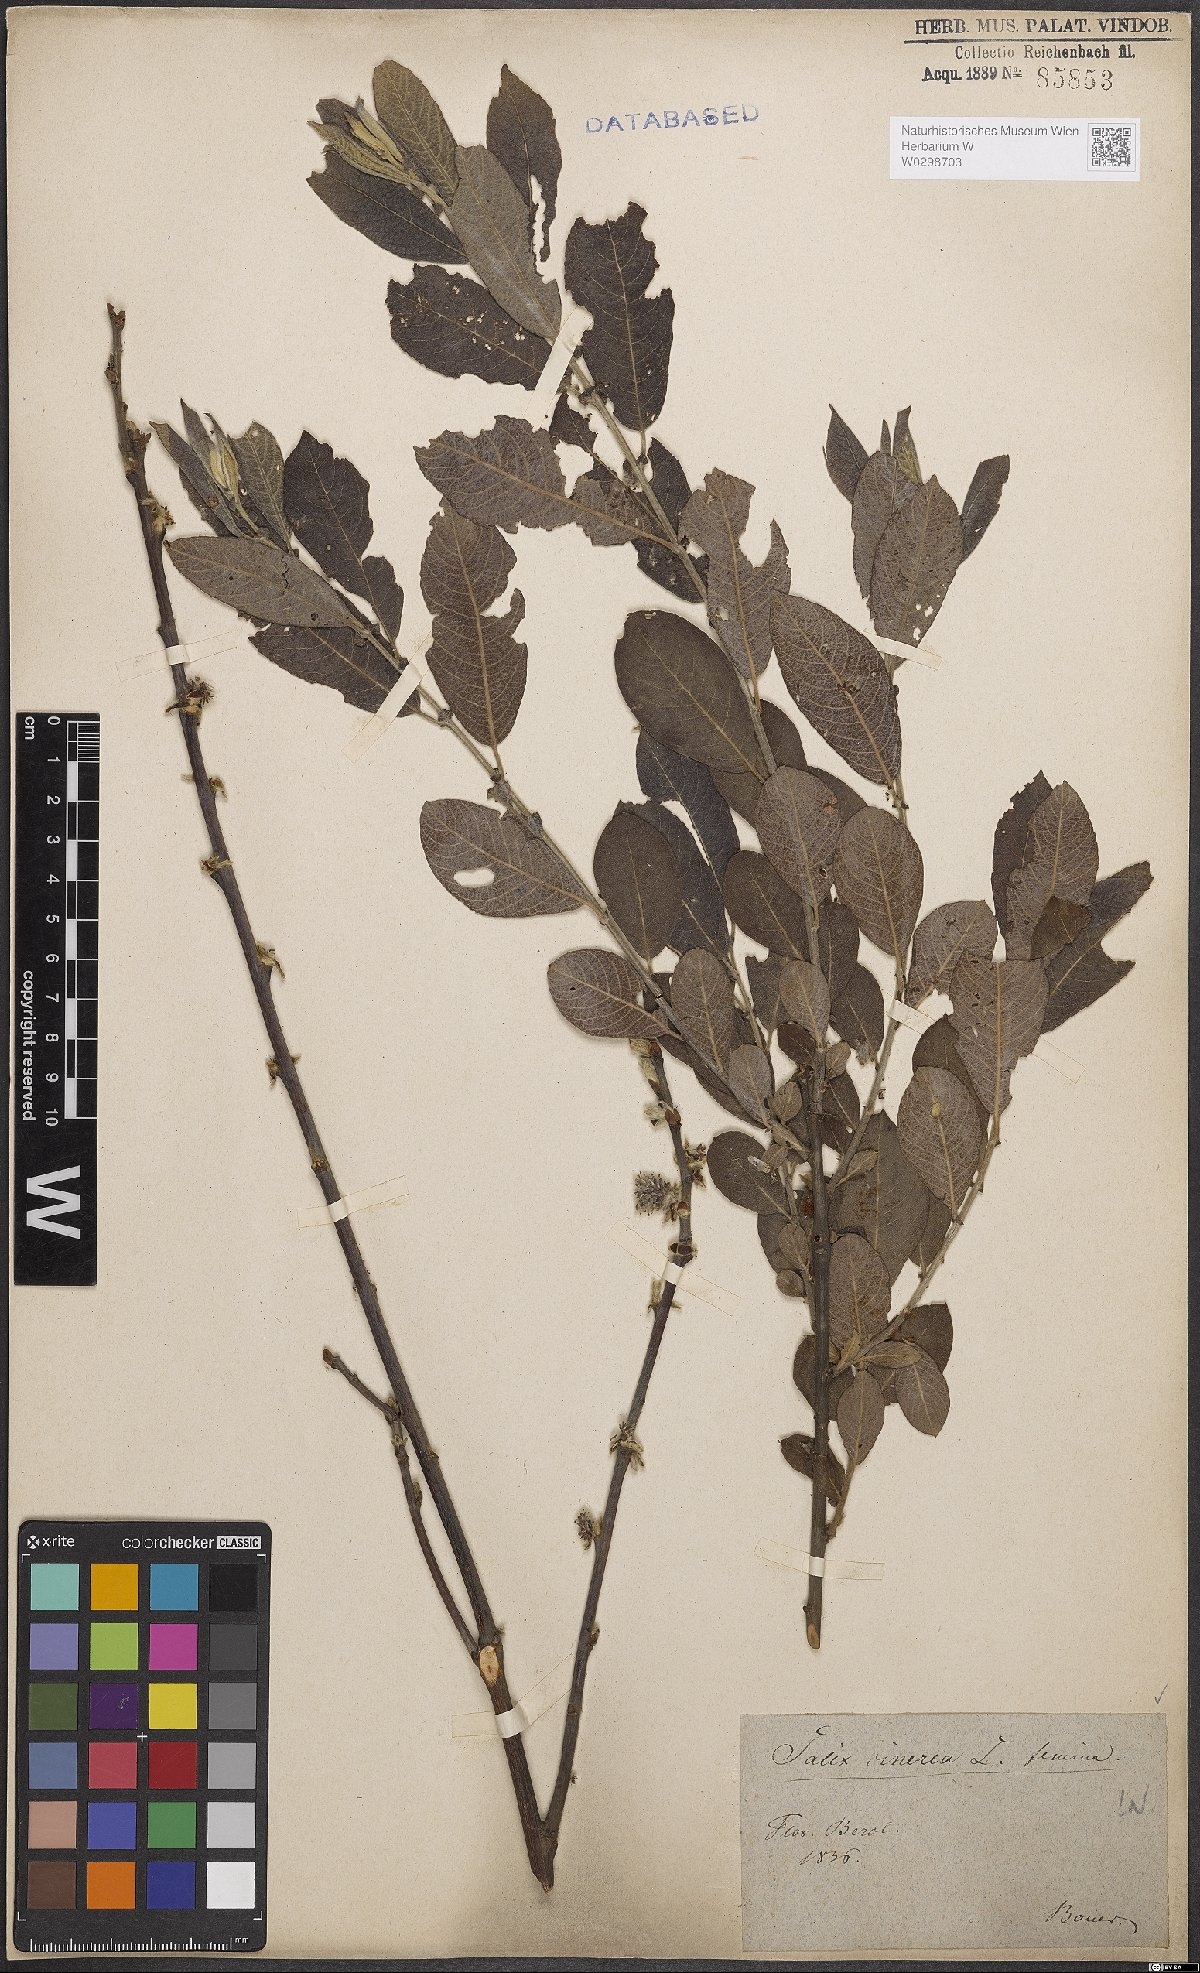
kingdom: Plantae
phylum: Tracheophyta
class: Magnoliopsida
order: Malpighiales
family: Salicaceae
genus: Salix
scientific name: Salix cinerea
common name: Common sallow
